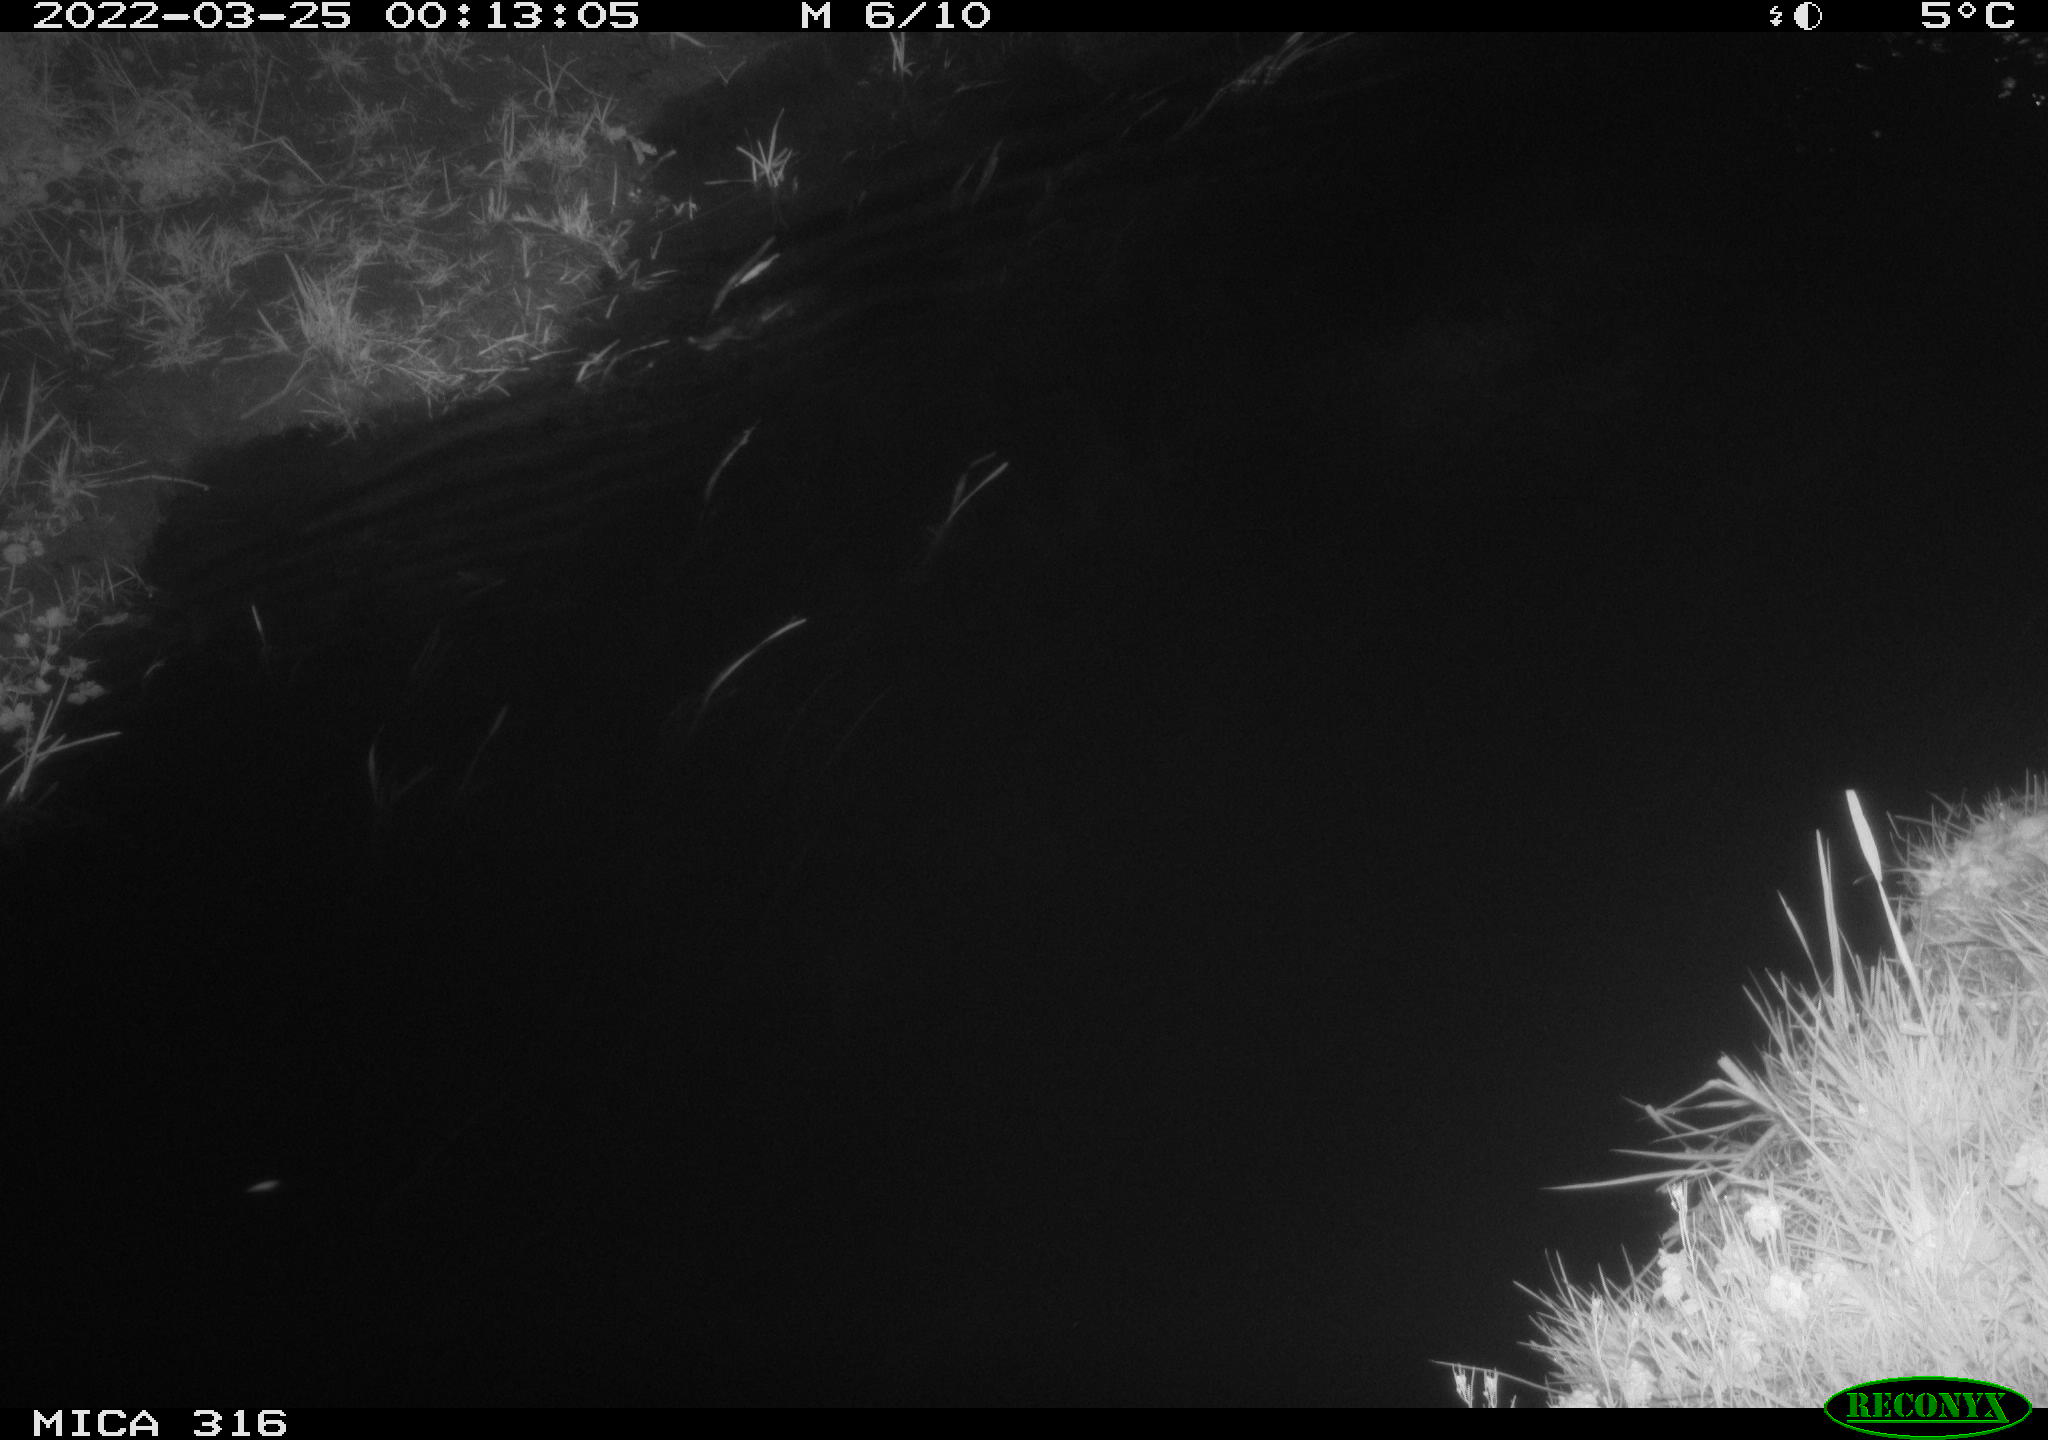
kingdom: Animalia
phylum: Chordata
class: Aves
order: Anseriformes
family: Anatidae
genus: Anas
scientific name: Anas platyrhynchos
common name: Mallard
